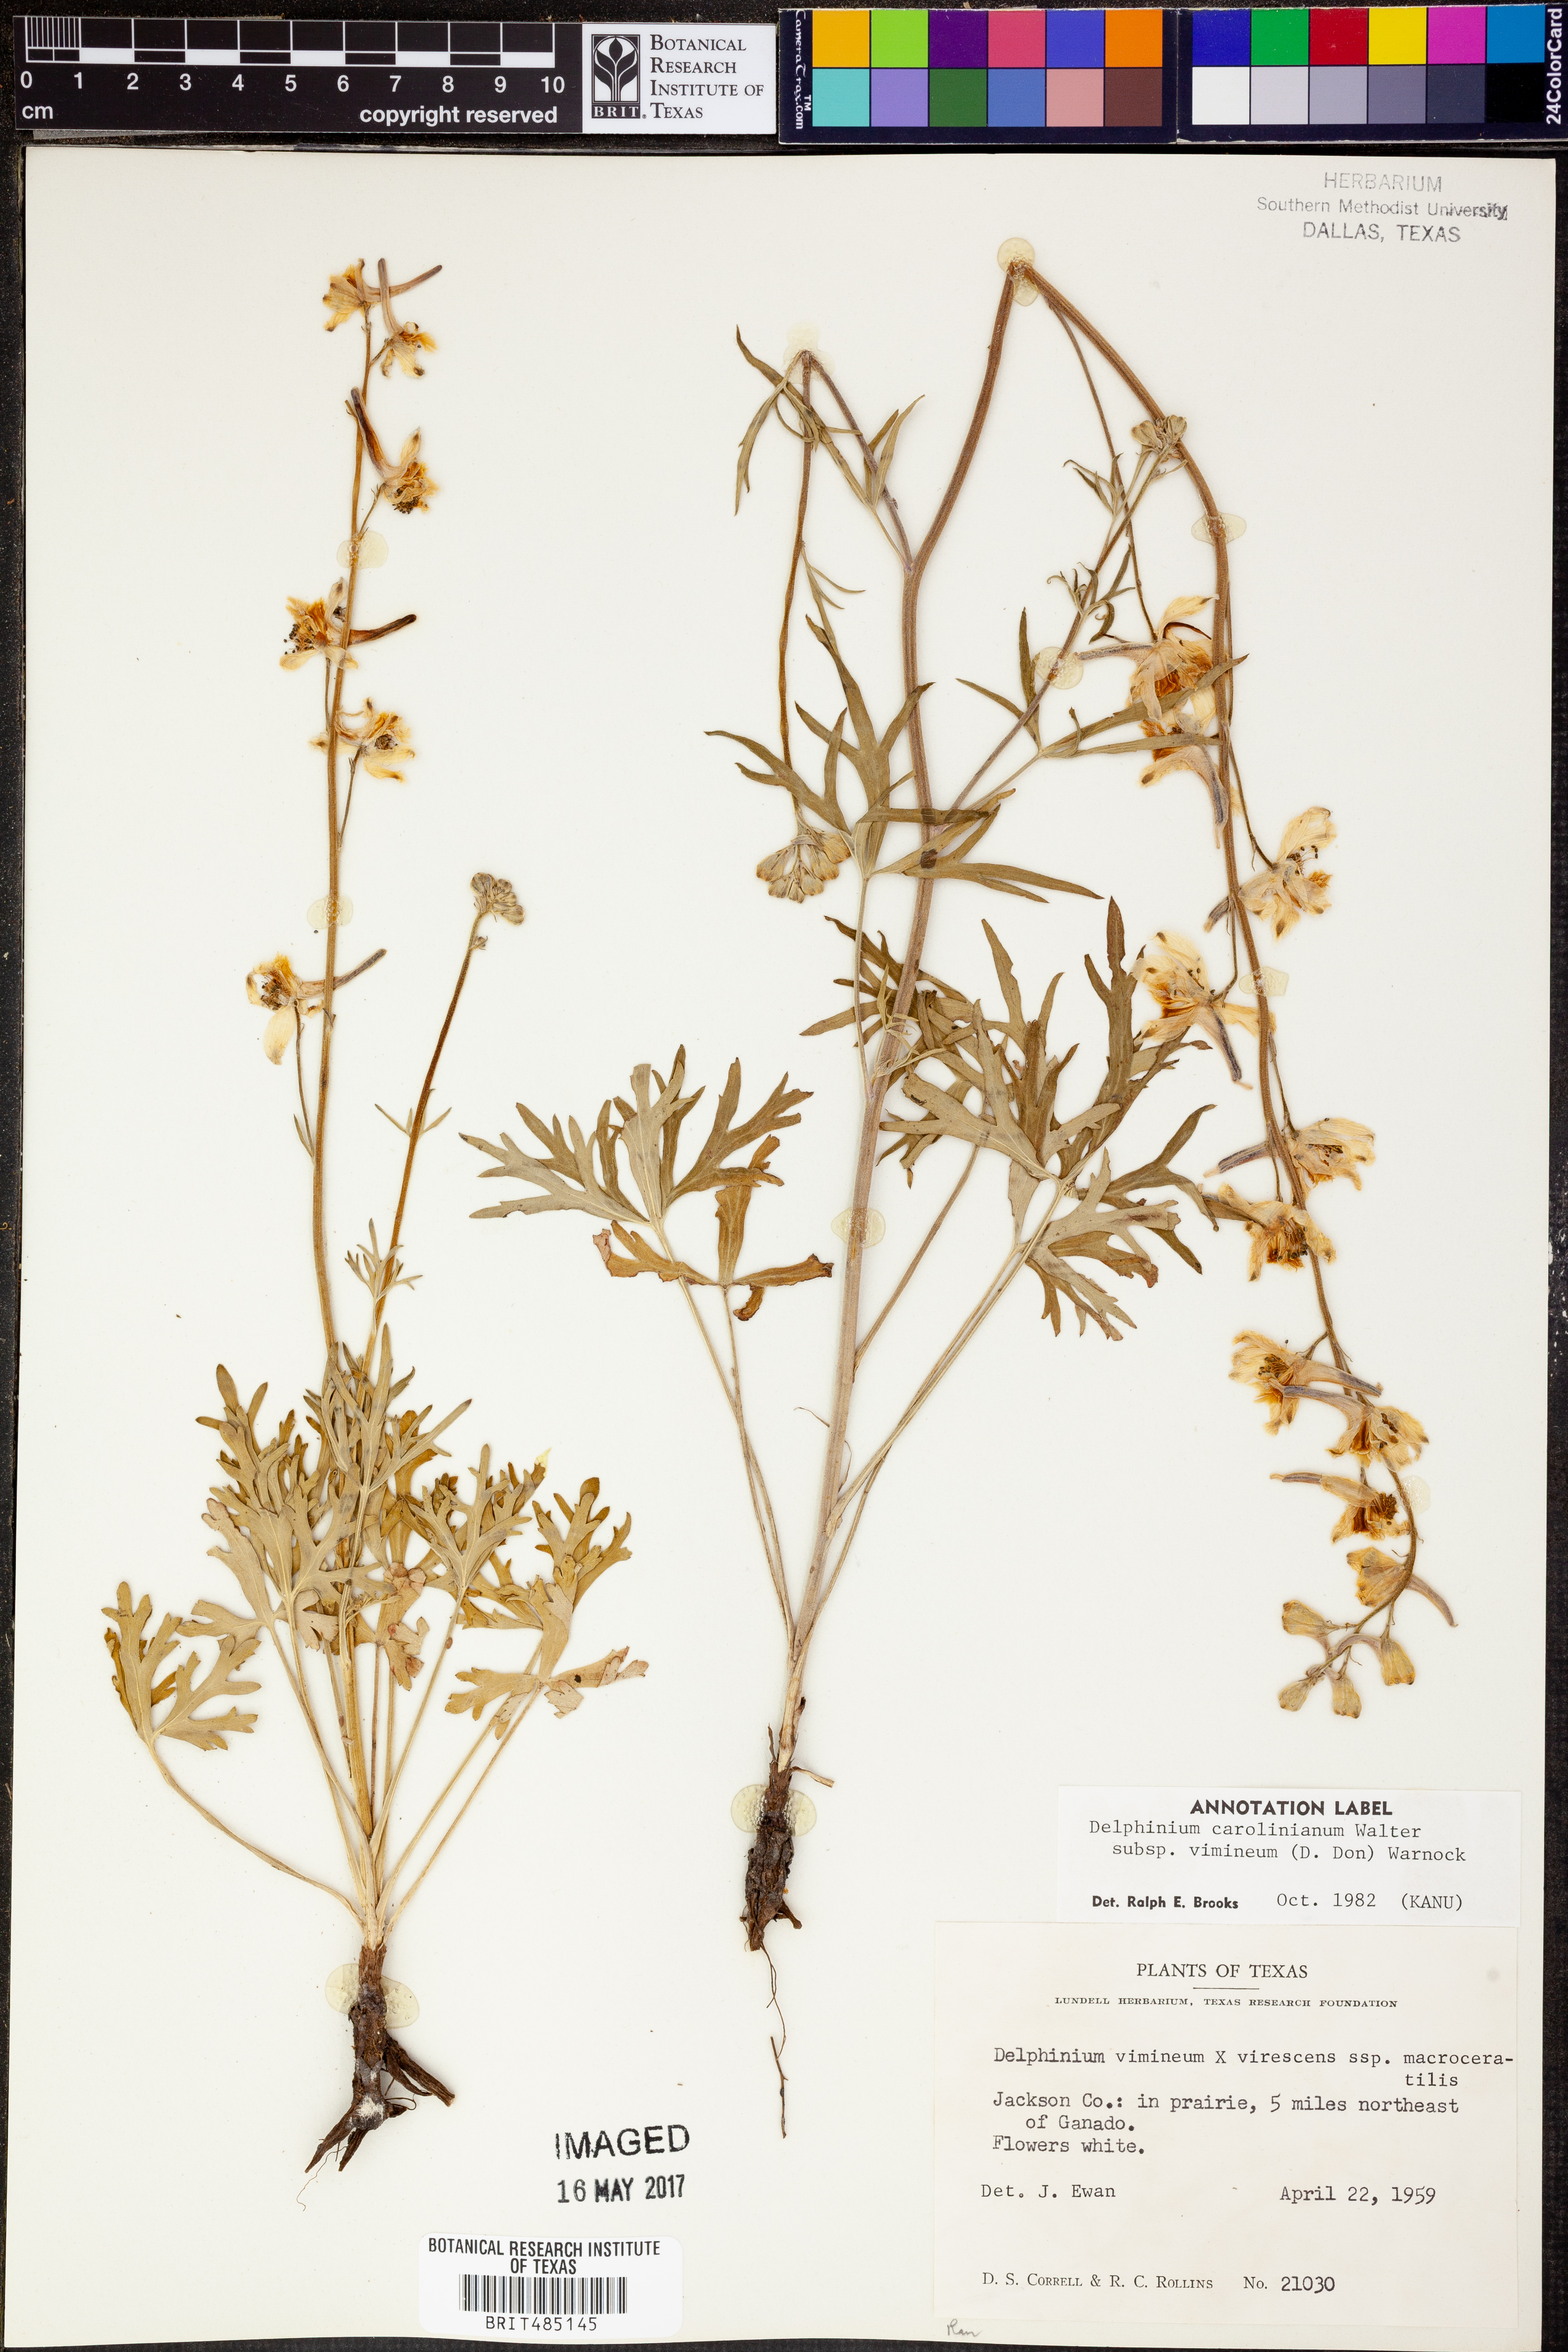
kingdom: Plantae
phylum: Tracheophyta
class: Magnoliopsida
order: Ranunculales
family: Ranunculaceae
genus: Delphinium
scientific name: Delphinium carolinianum
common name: Carolina larkspur
